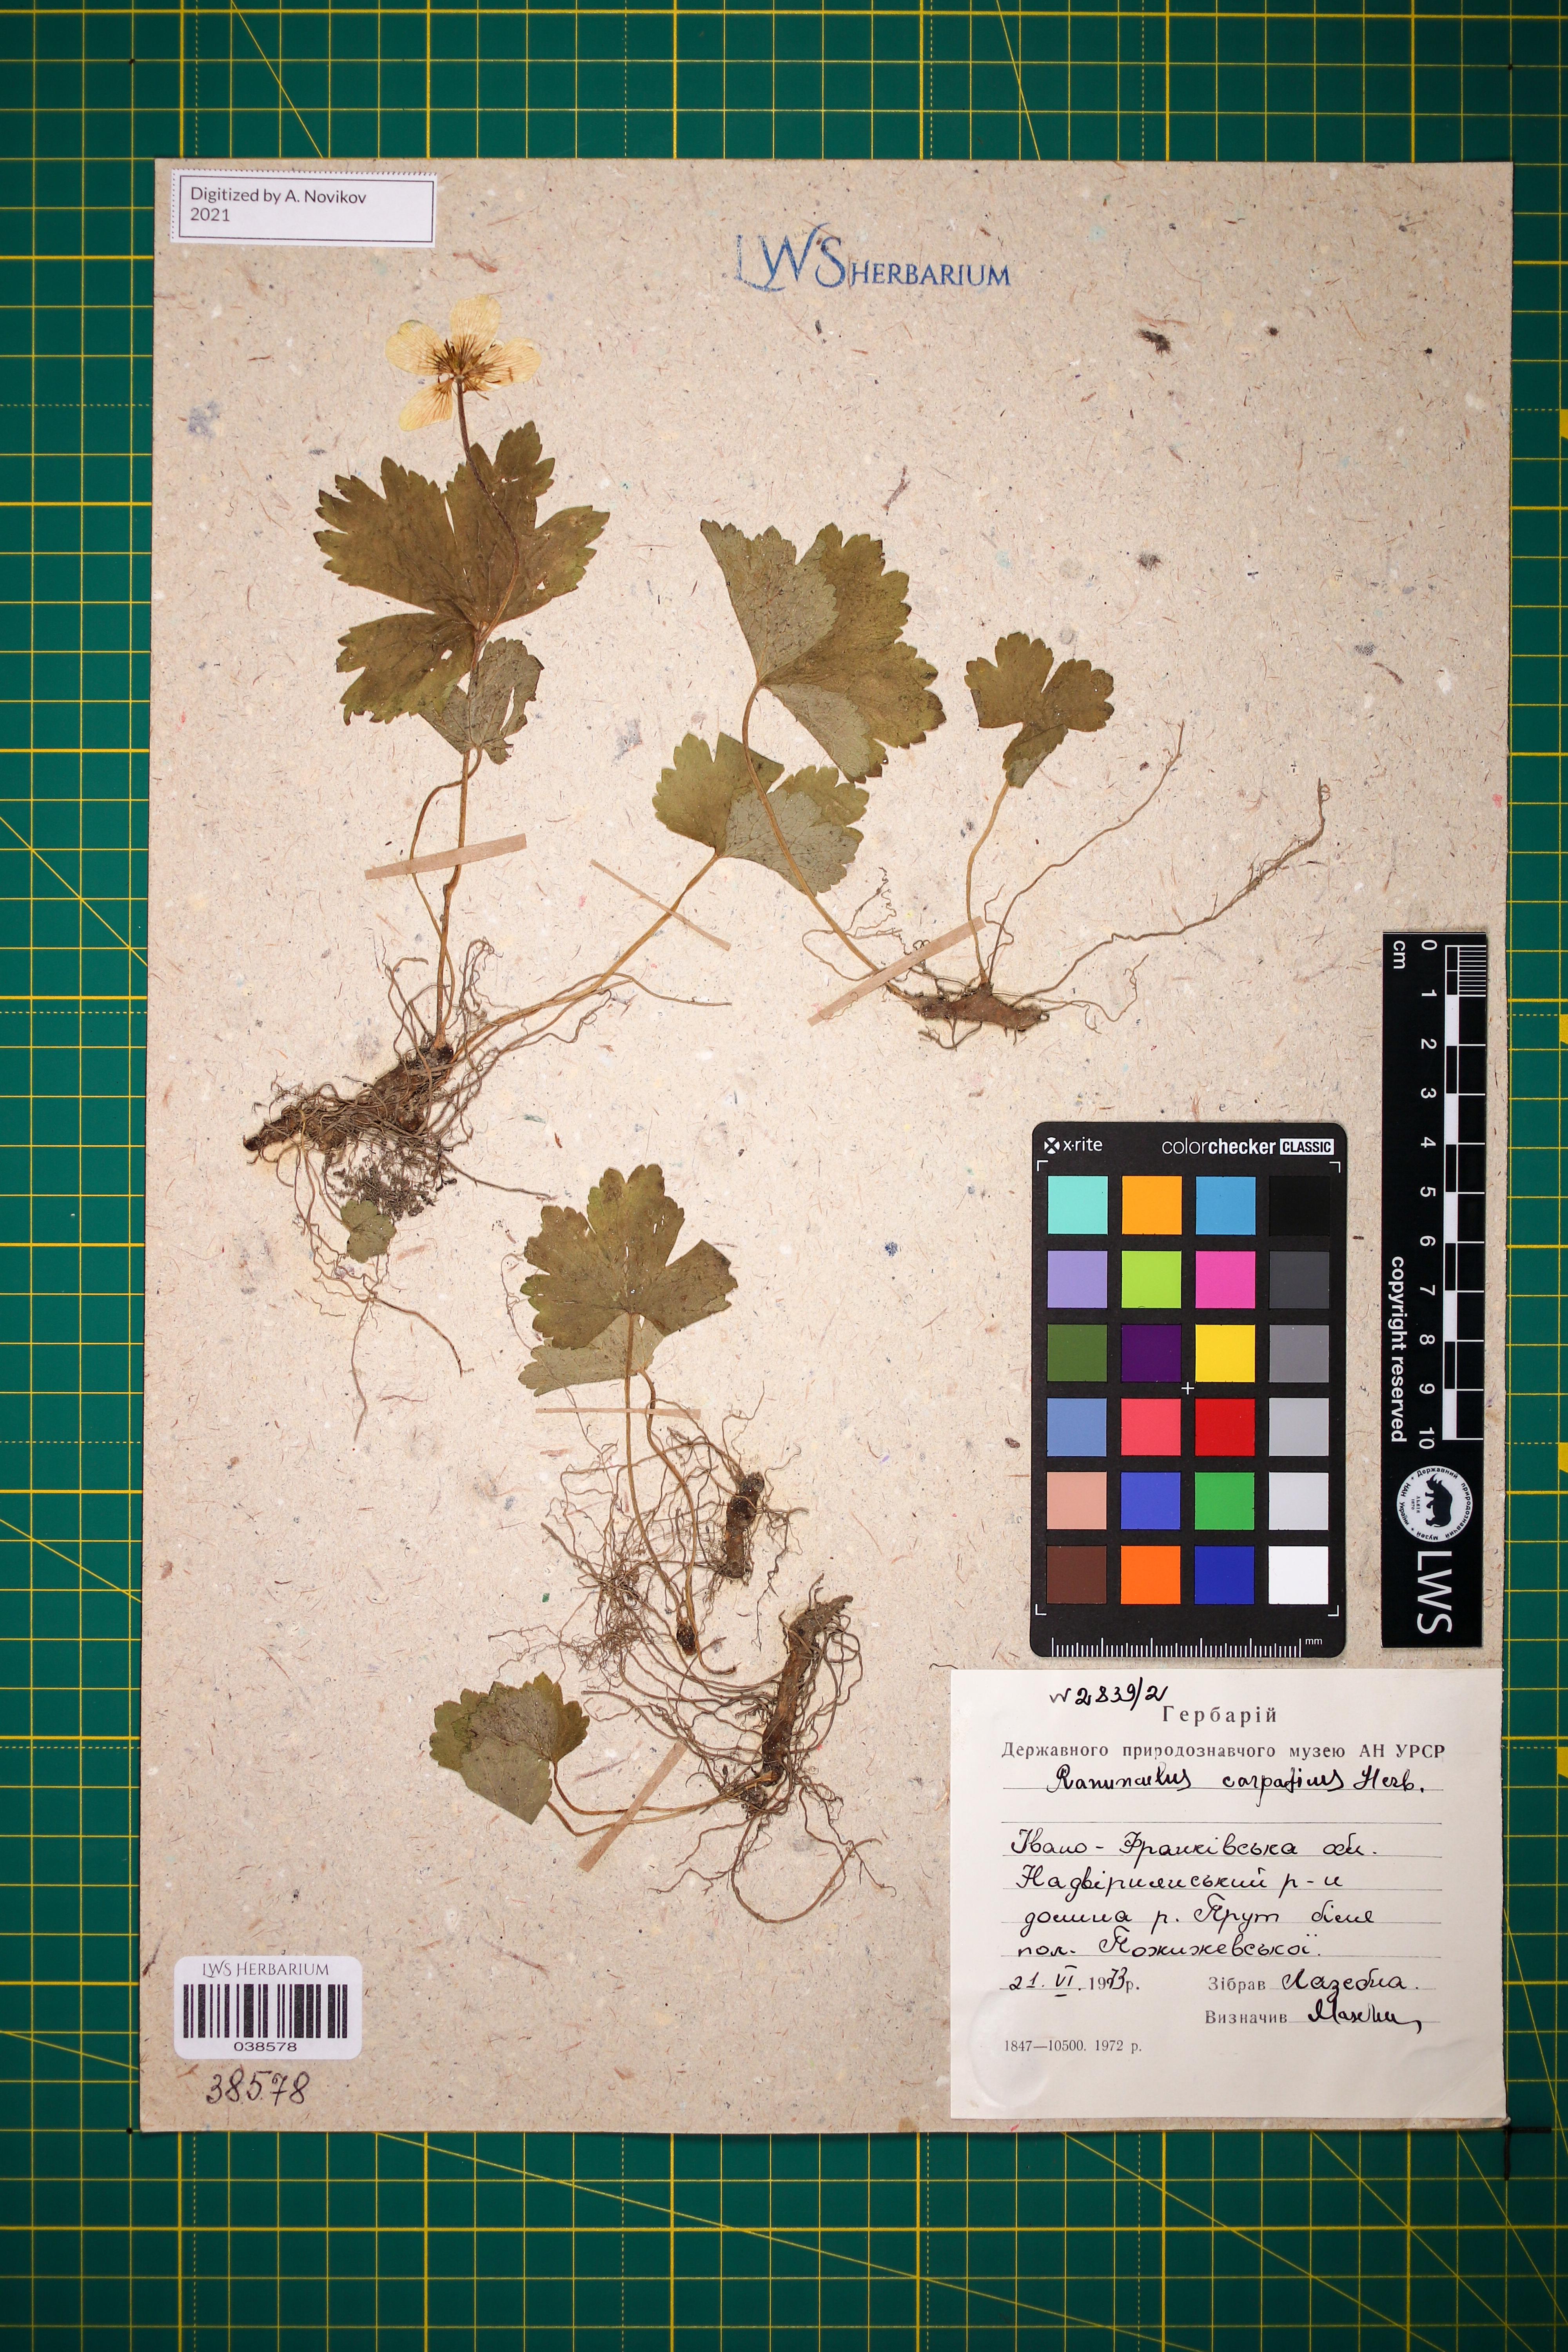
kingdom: Plantae
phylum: Tracheophyta
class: Magnoliopsida
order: Ranunculales
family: Ranunculaceae
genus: Ranunculus
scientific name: Ranunculus carpaticus
